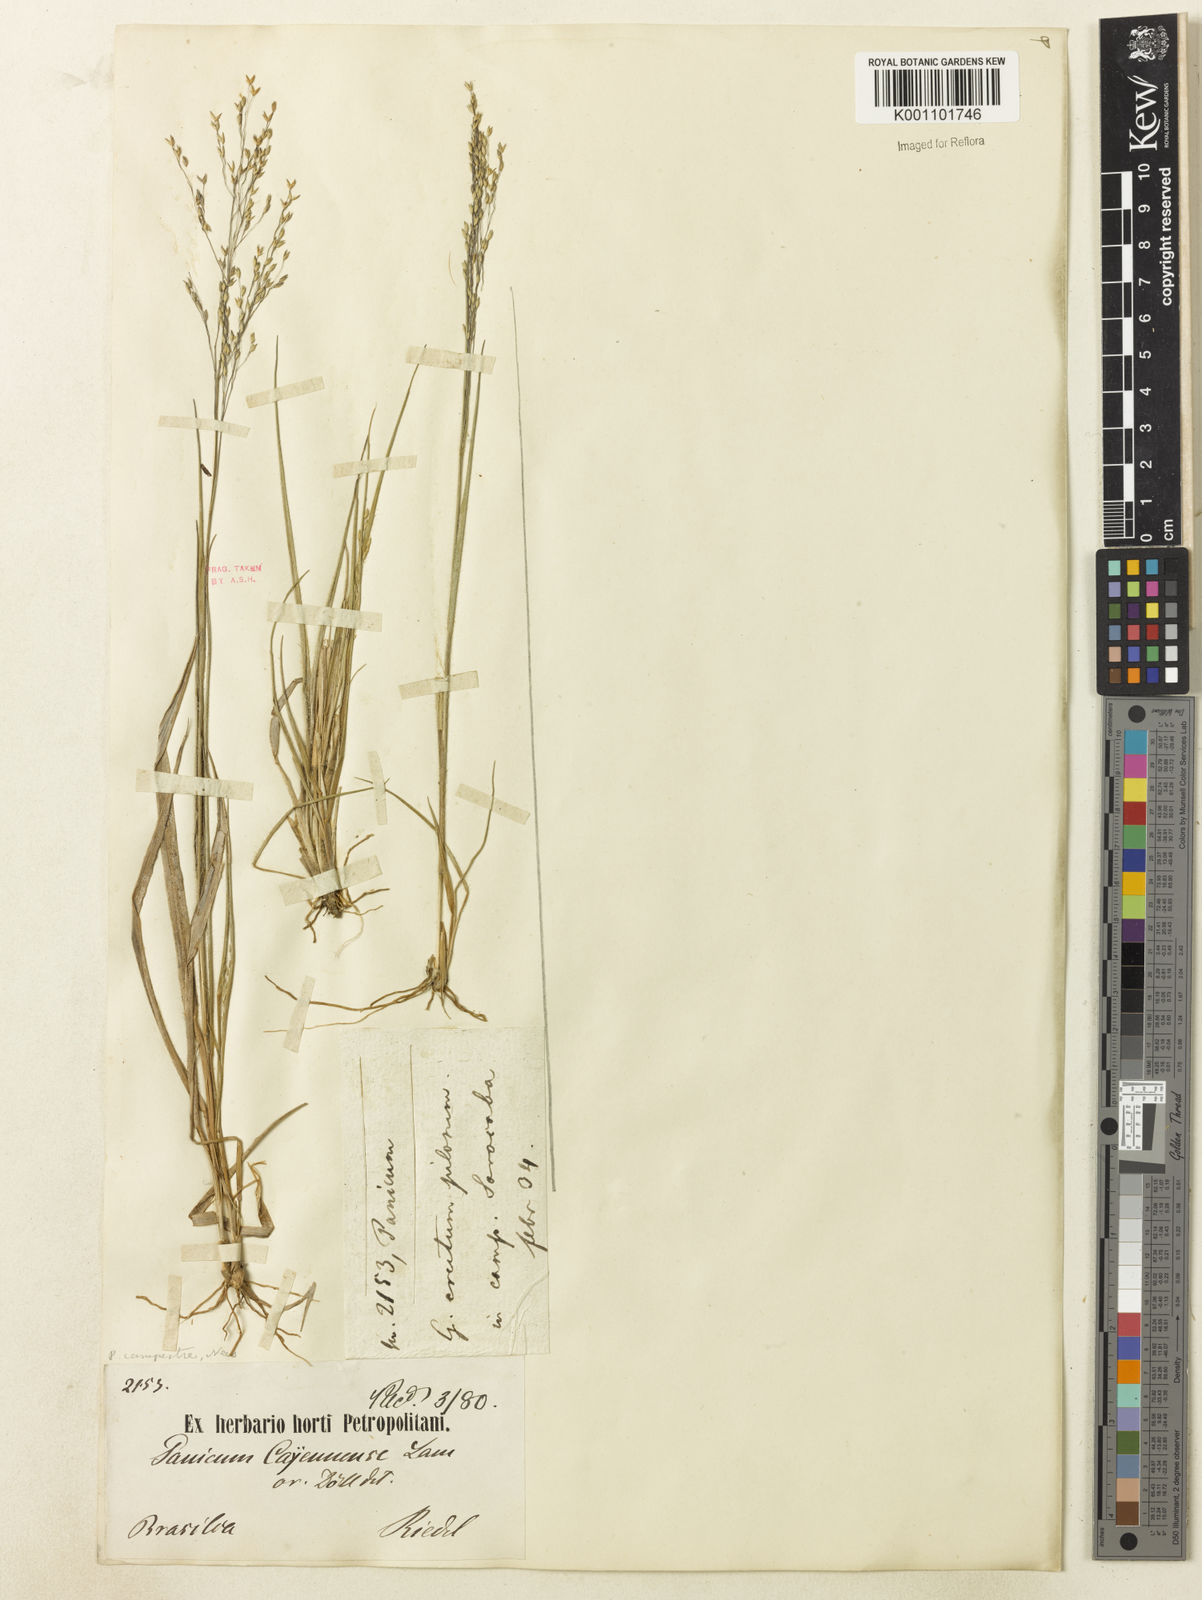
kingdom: Plantae
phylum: Tracheophyta
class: Liliopsida
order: Poales
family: Poaceae
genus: Panicum
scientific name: Panicum peladoense
